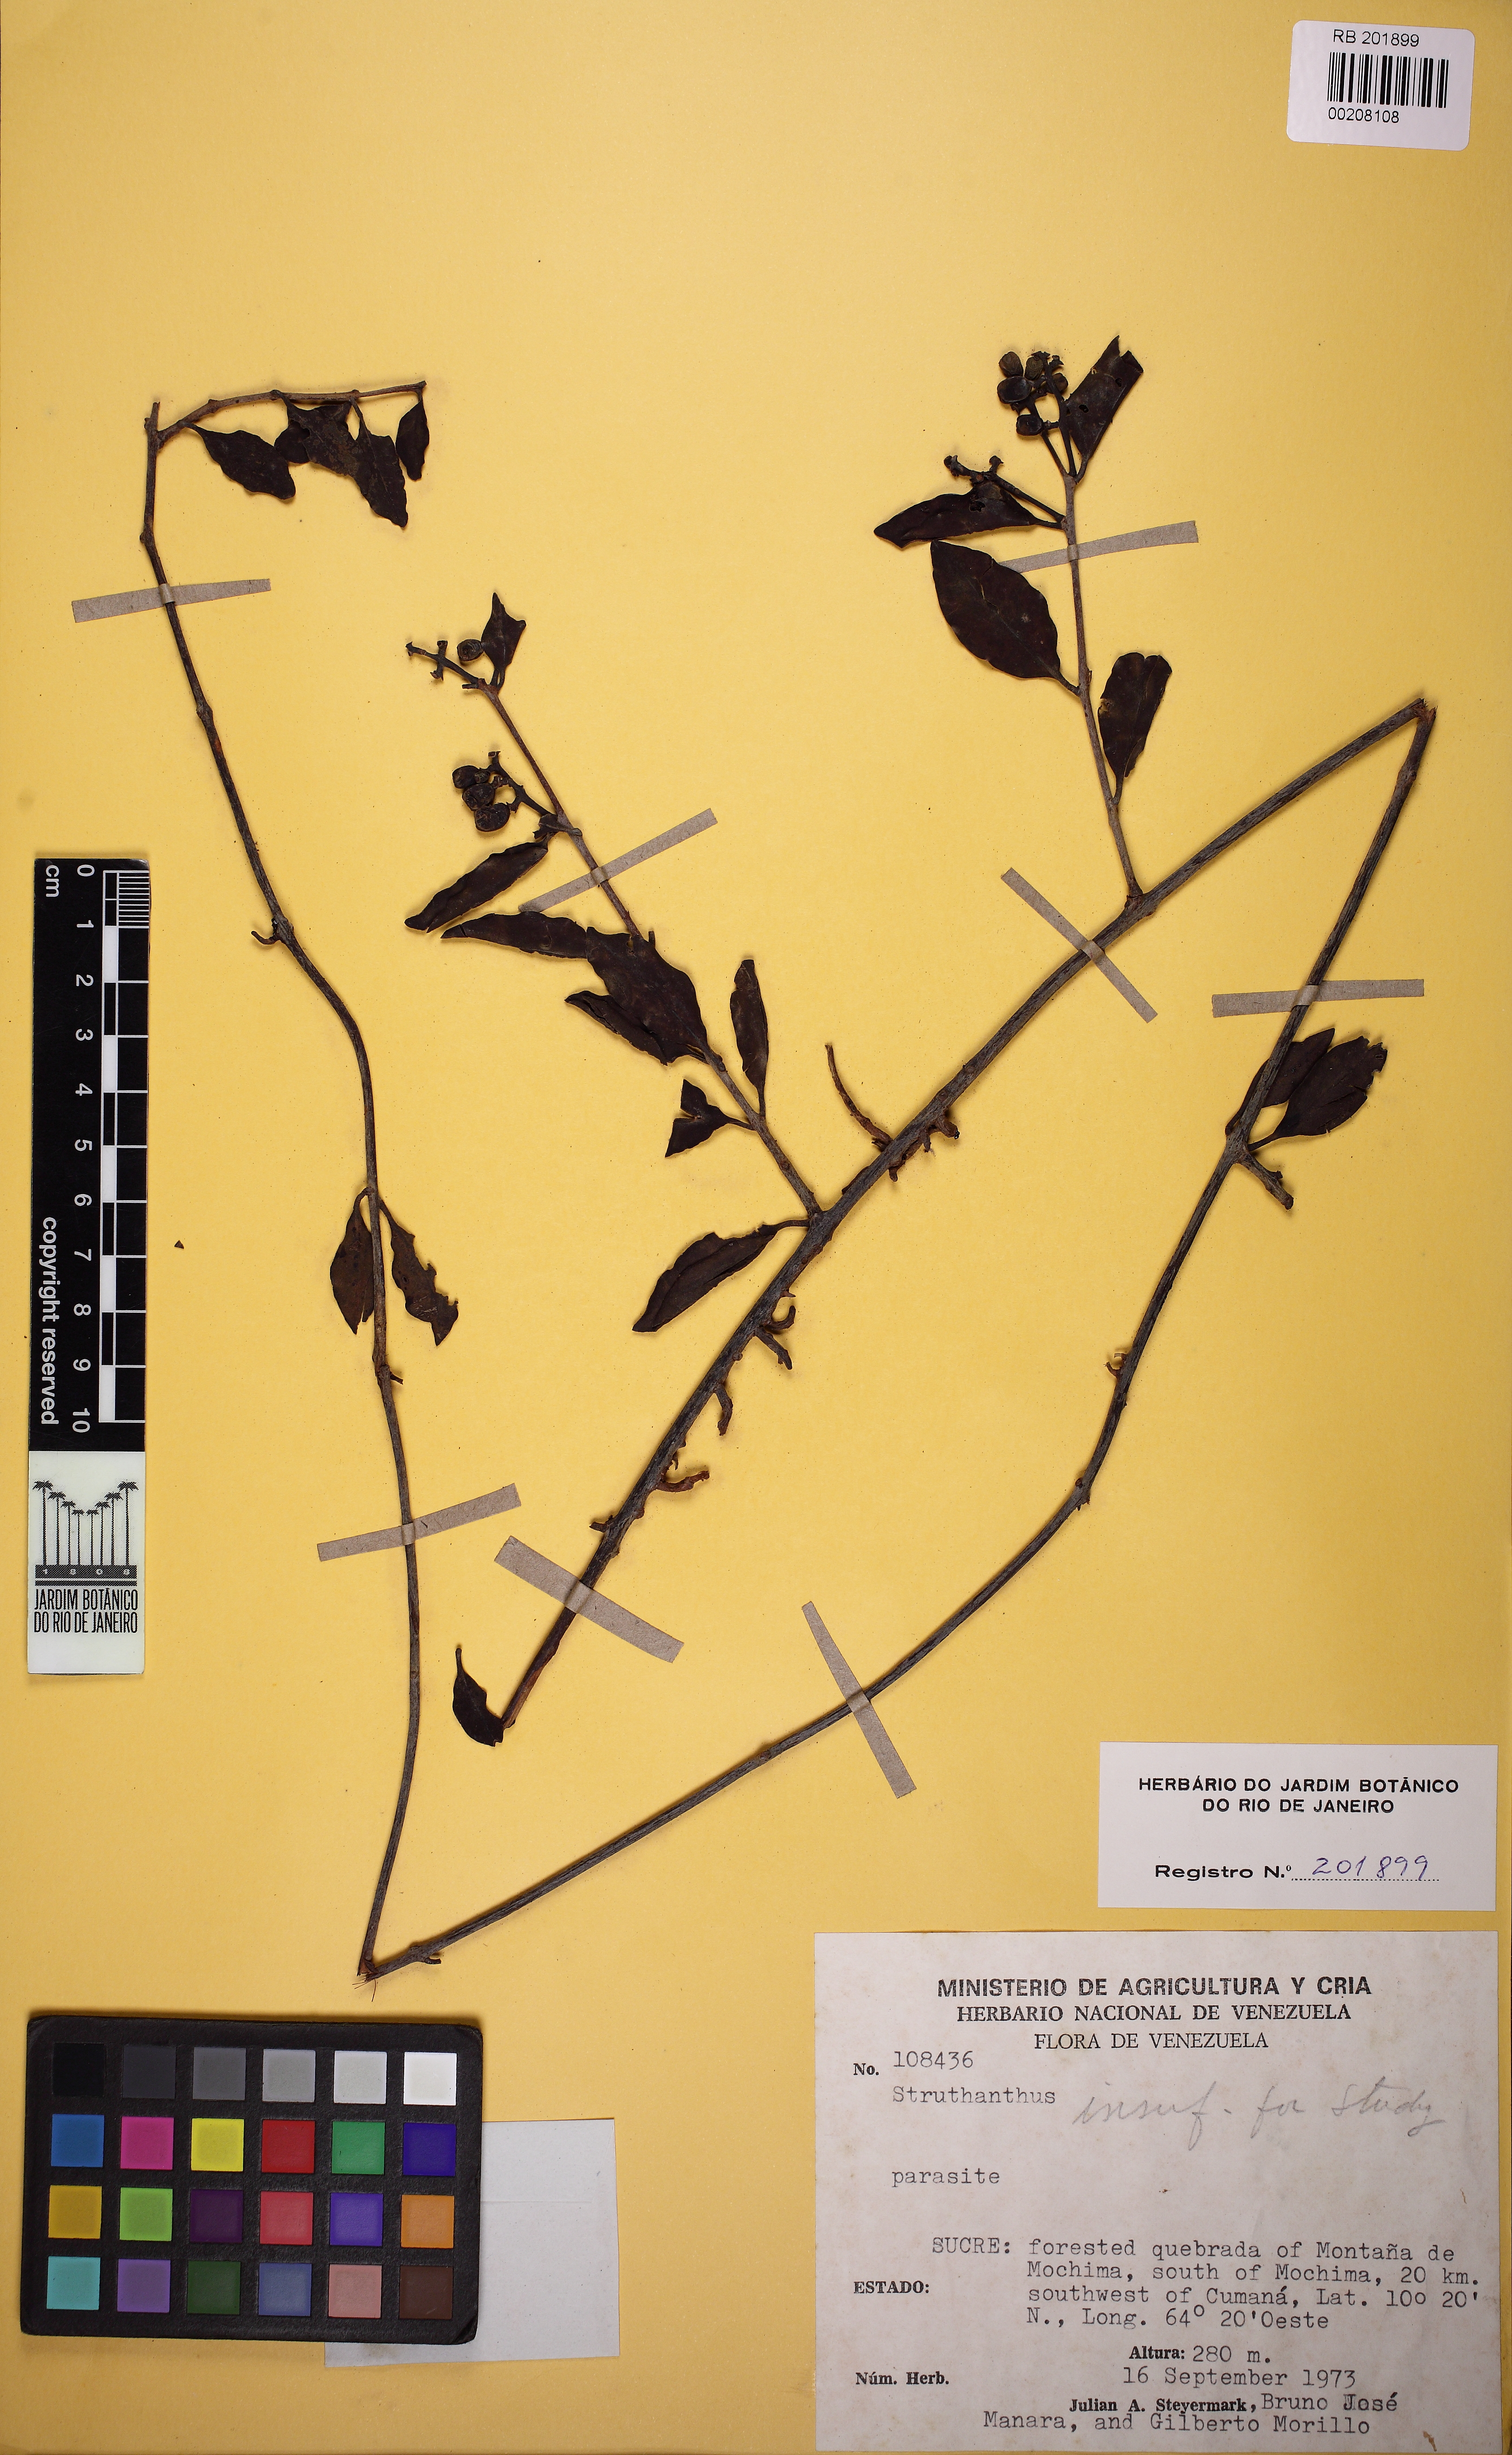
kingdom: Plantae
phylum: Tracheophyta
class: Magnoliopsida
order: Santalales
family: Loranthaceae
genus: Struthanthus
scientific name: Struthanthus
